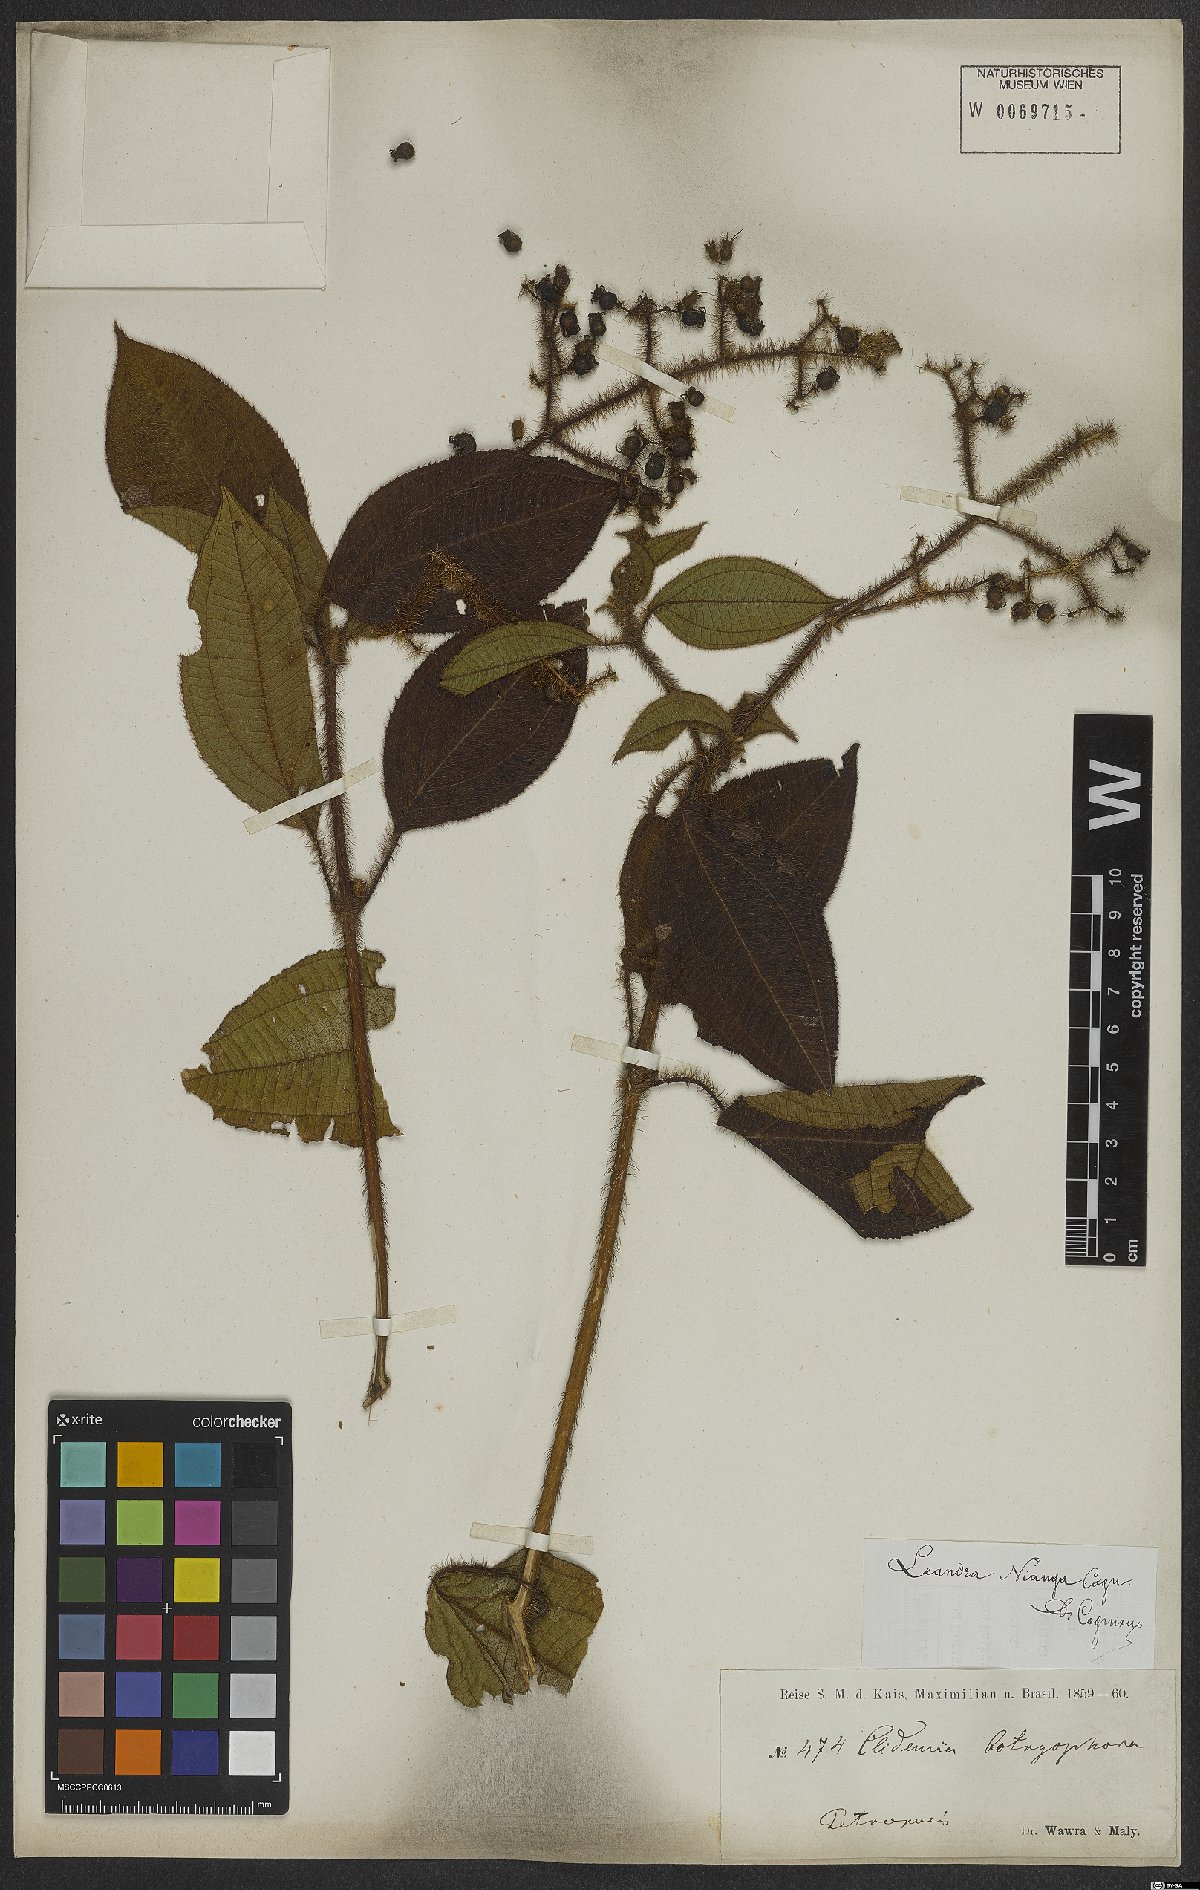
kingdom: Plantae
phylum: Tracheophyta
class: Magnoliopsida
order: Myrtales
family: Melastomataceae
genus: Miconia
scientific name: Miconia nianga
